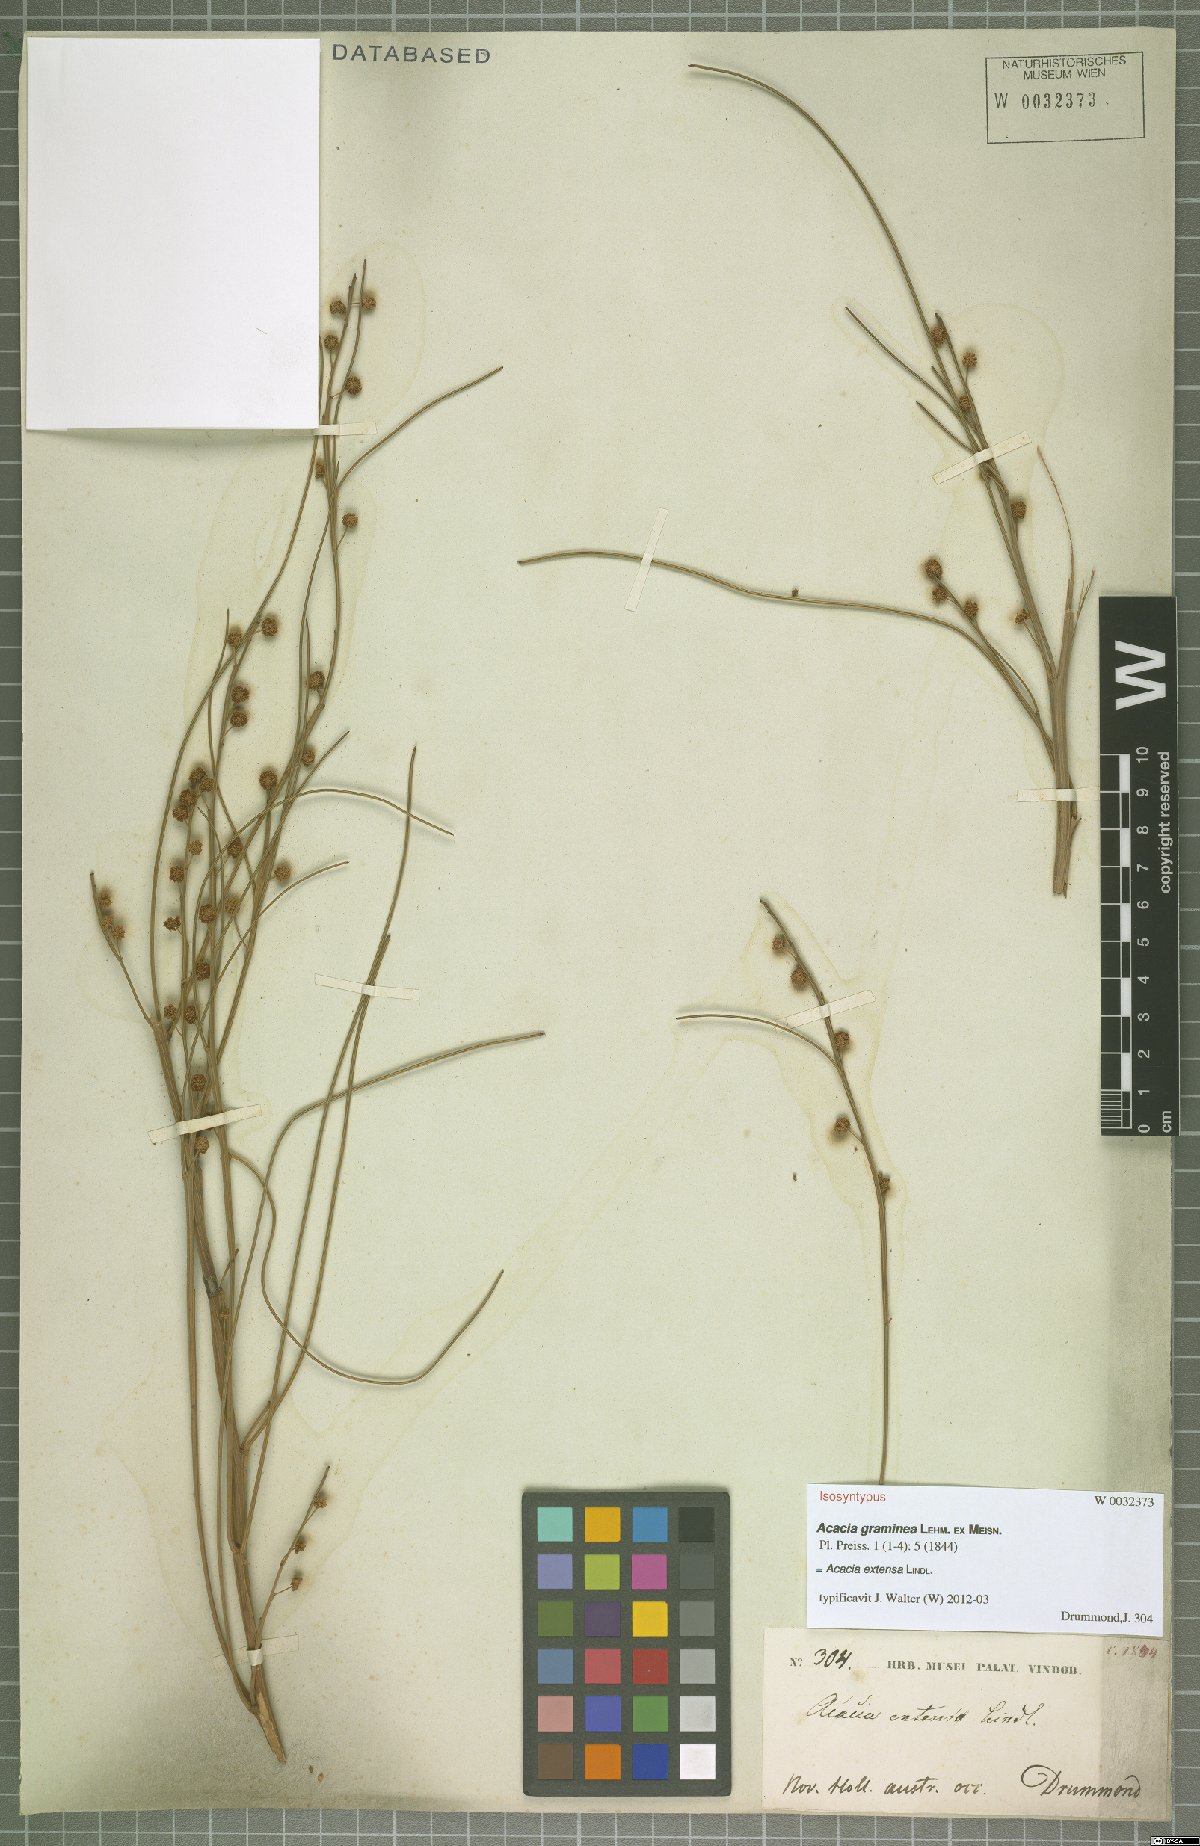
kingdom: Plantae
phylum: Tracheophyta
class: Magnoliopsida
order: Fabales
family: Fabaceae
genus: Acacia
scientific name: Acacia extensa
